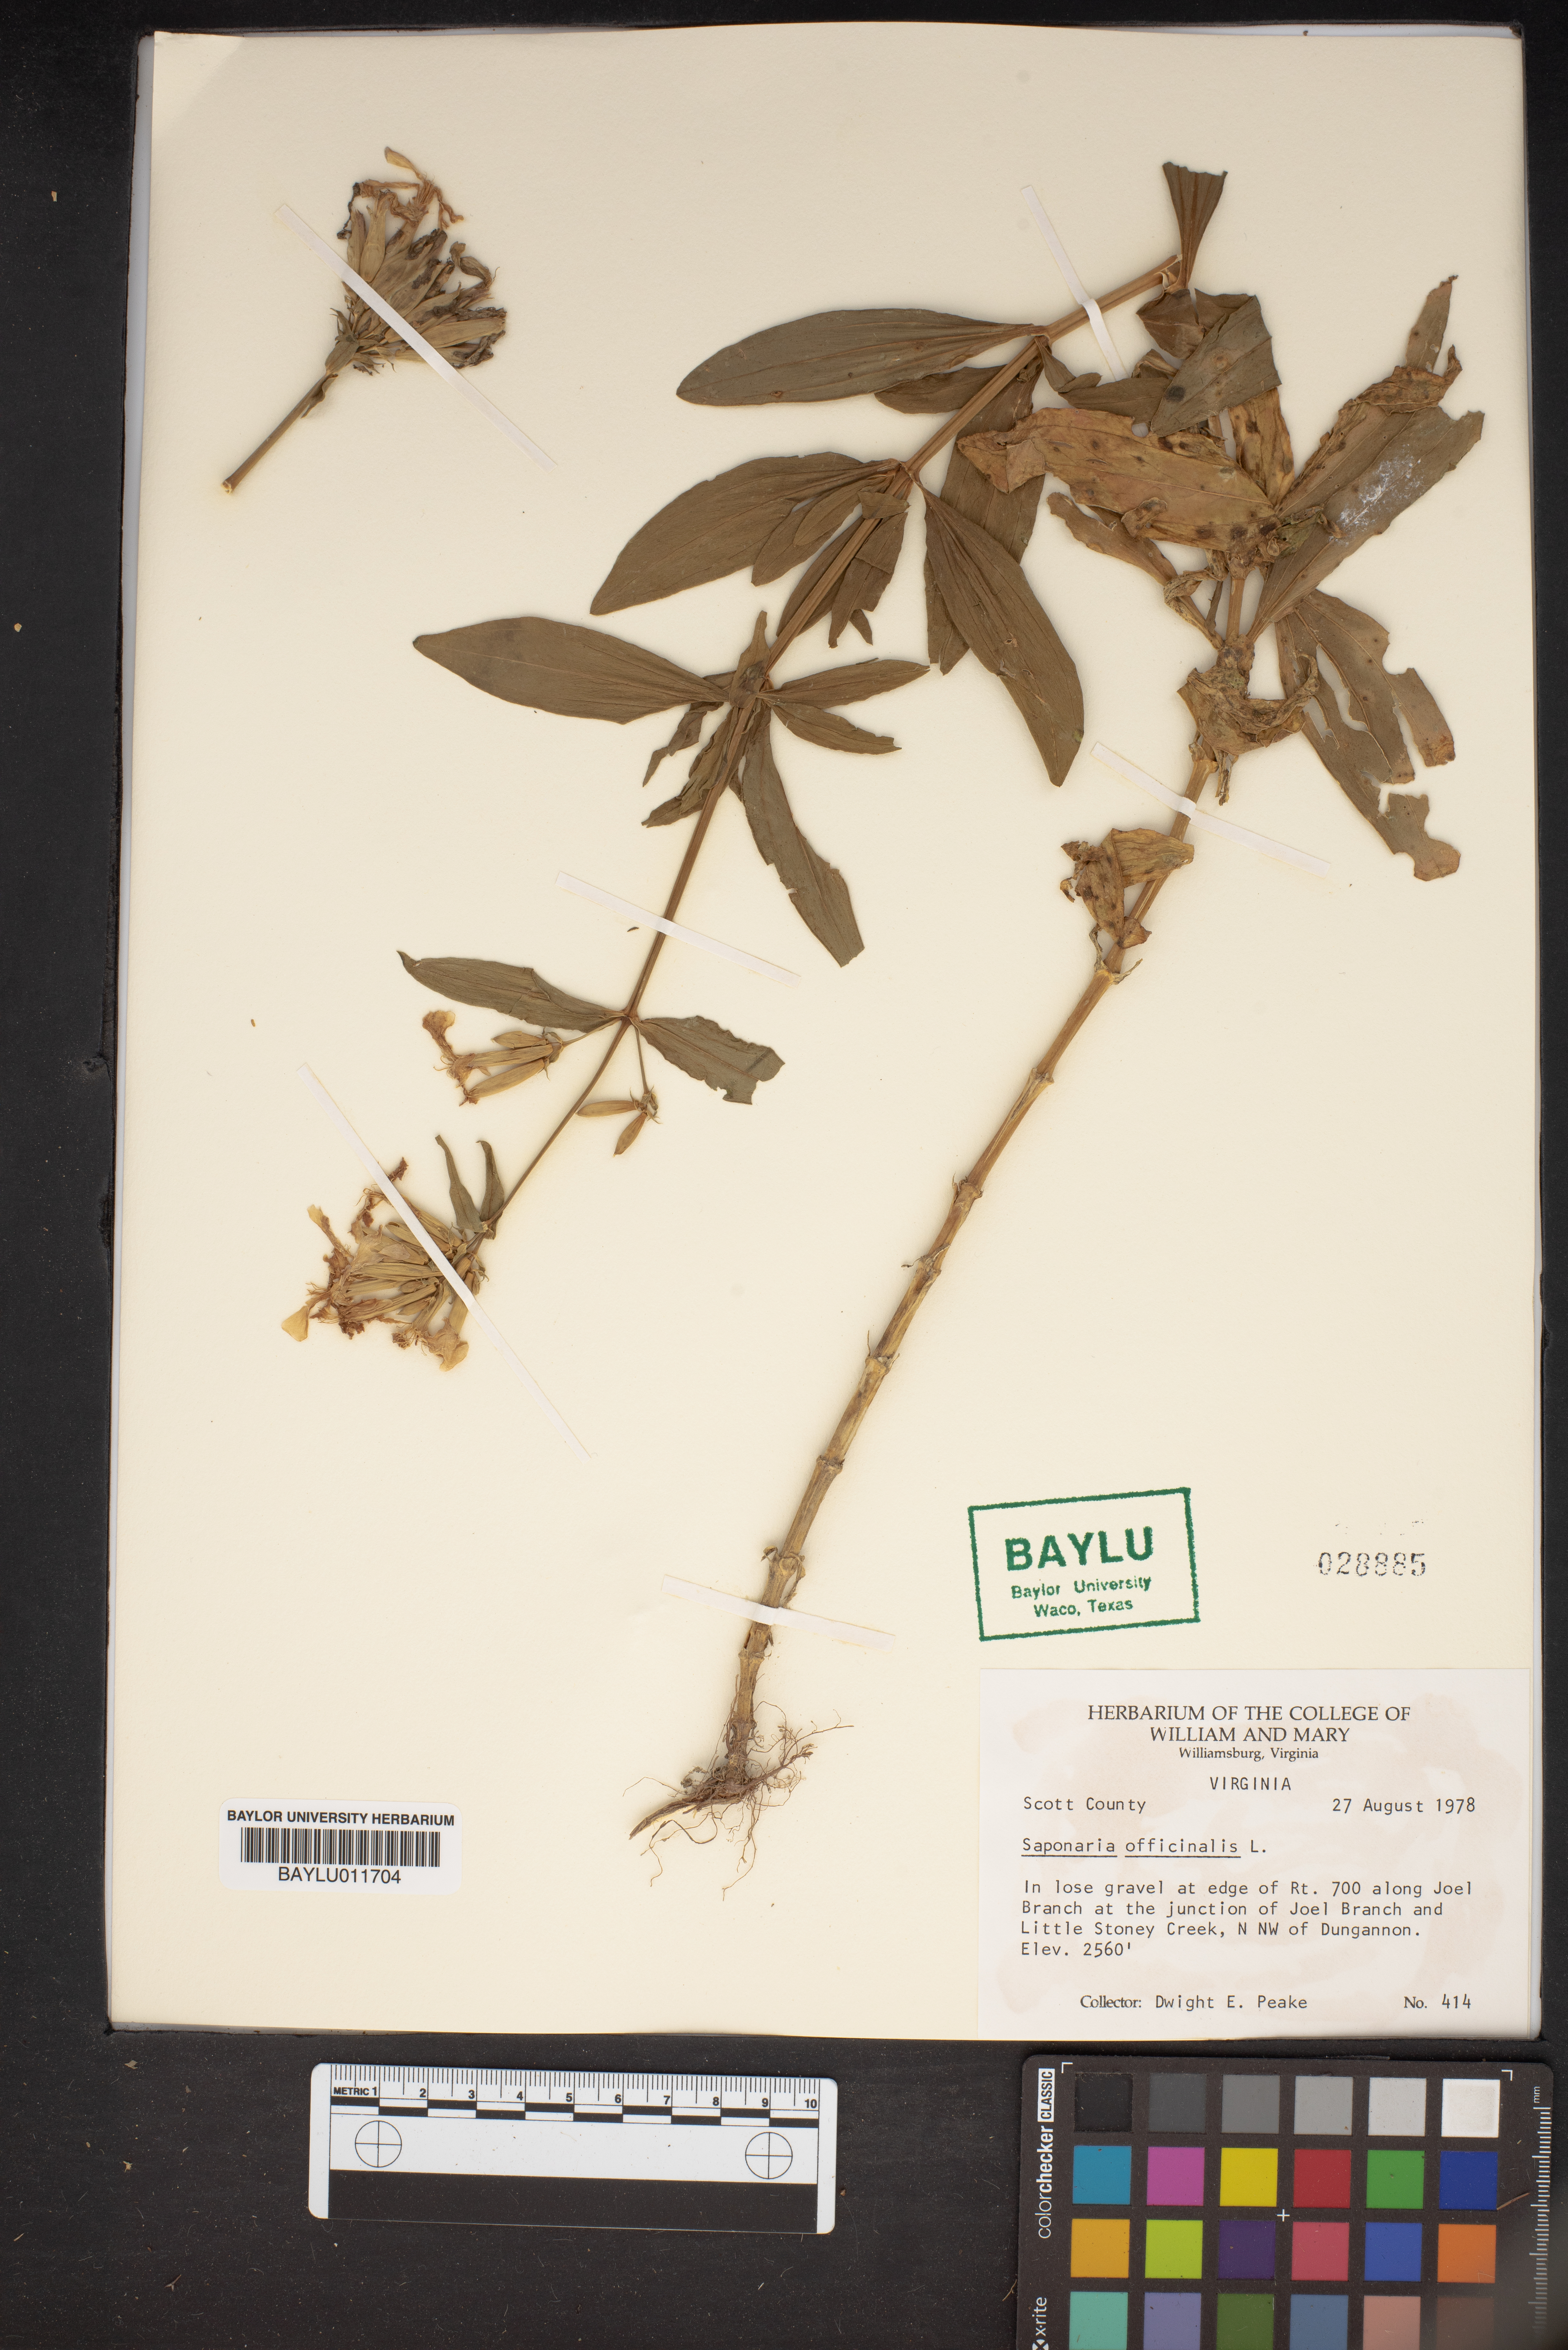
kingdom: Plantae
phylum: Tracheophyta
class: Magnoliopsida
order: Caryophyllales
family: Caryophyllaceae
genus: Saponaria
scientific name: Saponaria officinalis
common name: Soapwort
